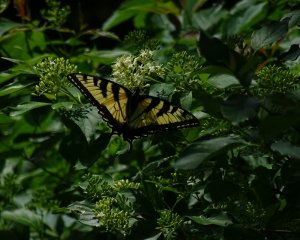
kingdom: Animalia
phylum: Arthropoda
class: Insecta
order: Lepidoptera
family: Papilionidae
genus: Pterourus
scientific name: Pterourus glaucus
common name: Eastern Tiger Swallowtail
